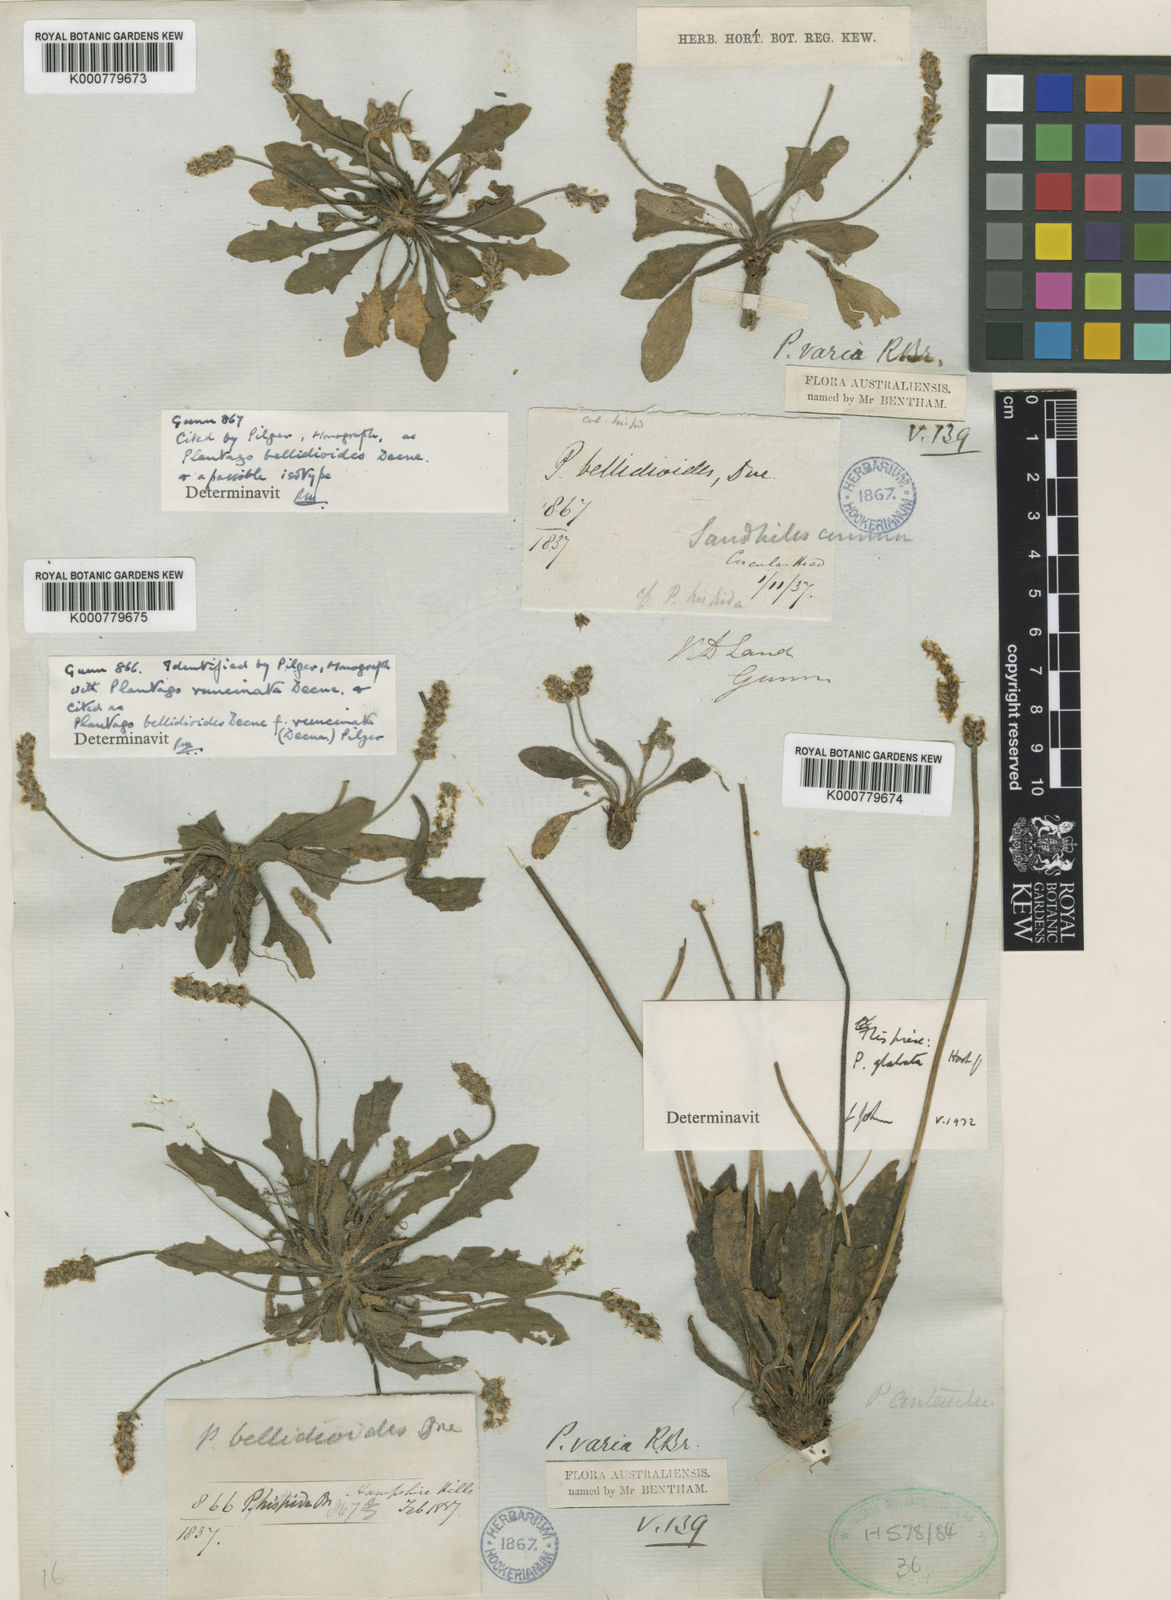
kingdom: Plantae
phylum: Tracheophyta
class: Magnoliopsida
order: Lamiales
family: Plantaginaceae
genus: Plantago
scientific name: Plantago bellidioides
